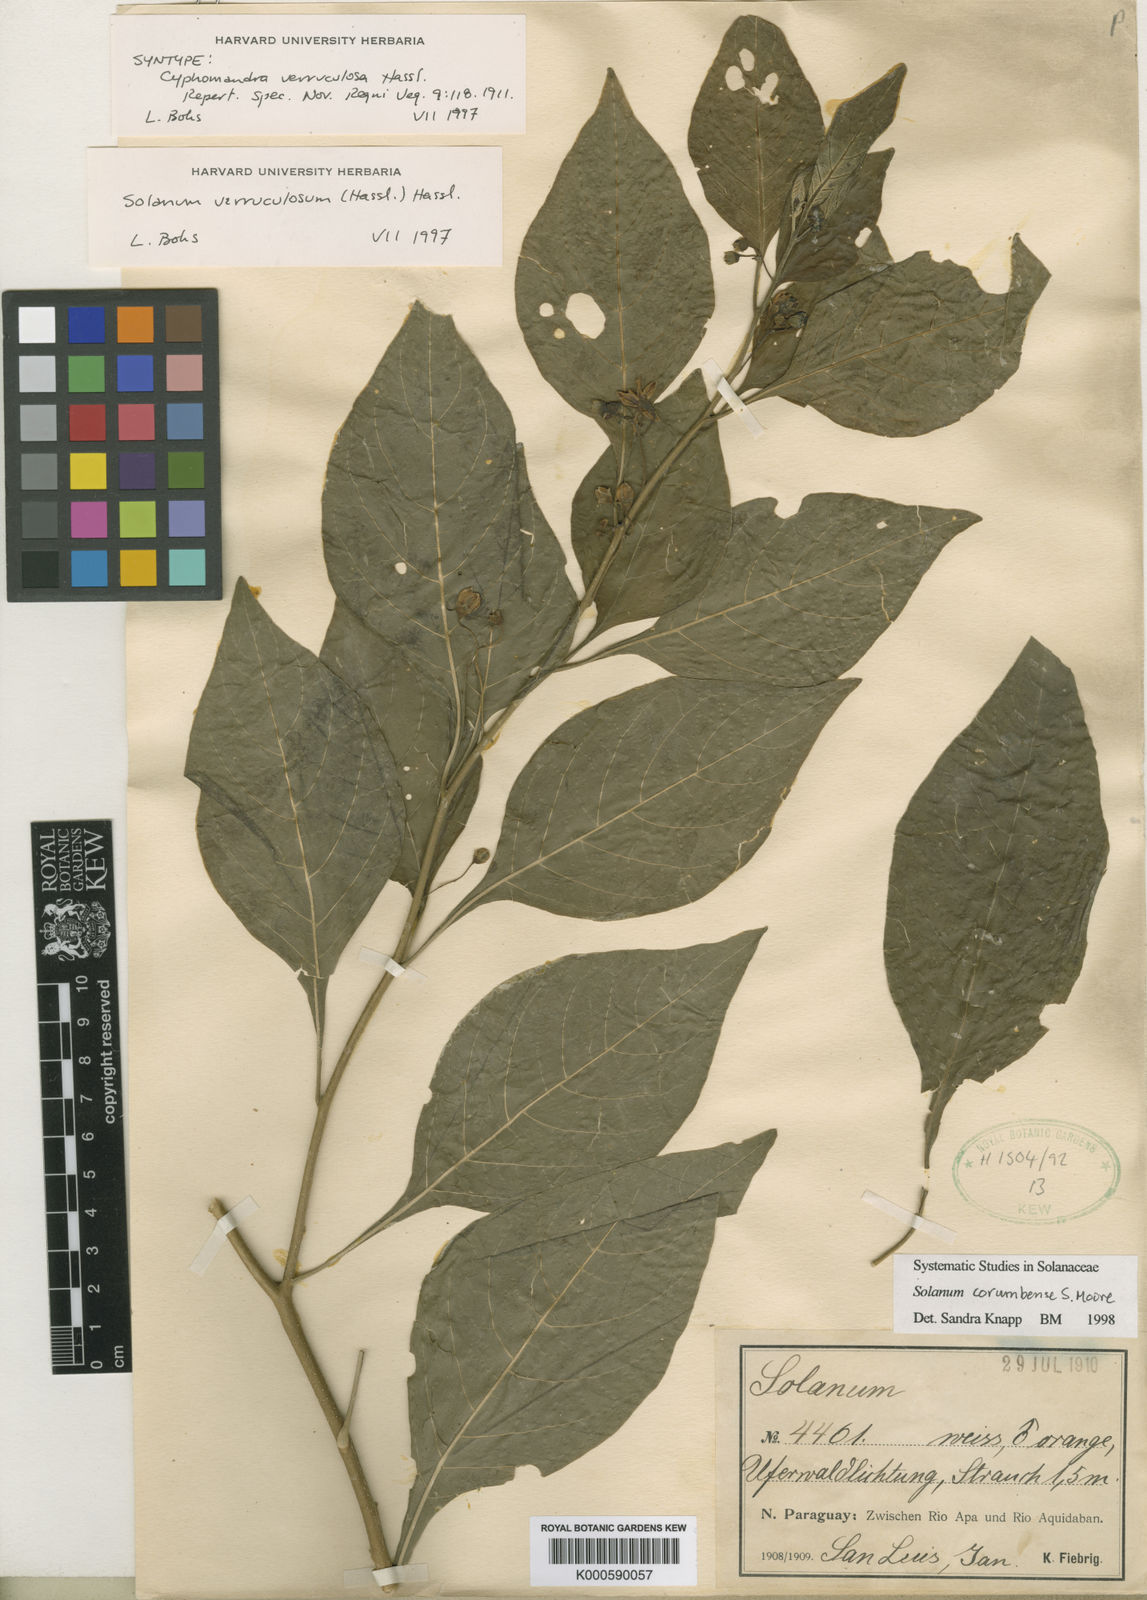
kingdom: Plantae
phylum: Tracheophyta
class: Magnoliopsida
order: Solanales
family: Solanaceae
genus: Solanum
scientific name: Solanum corumbense
